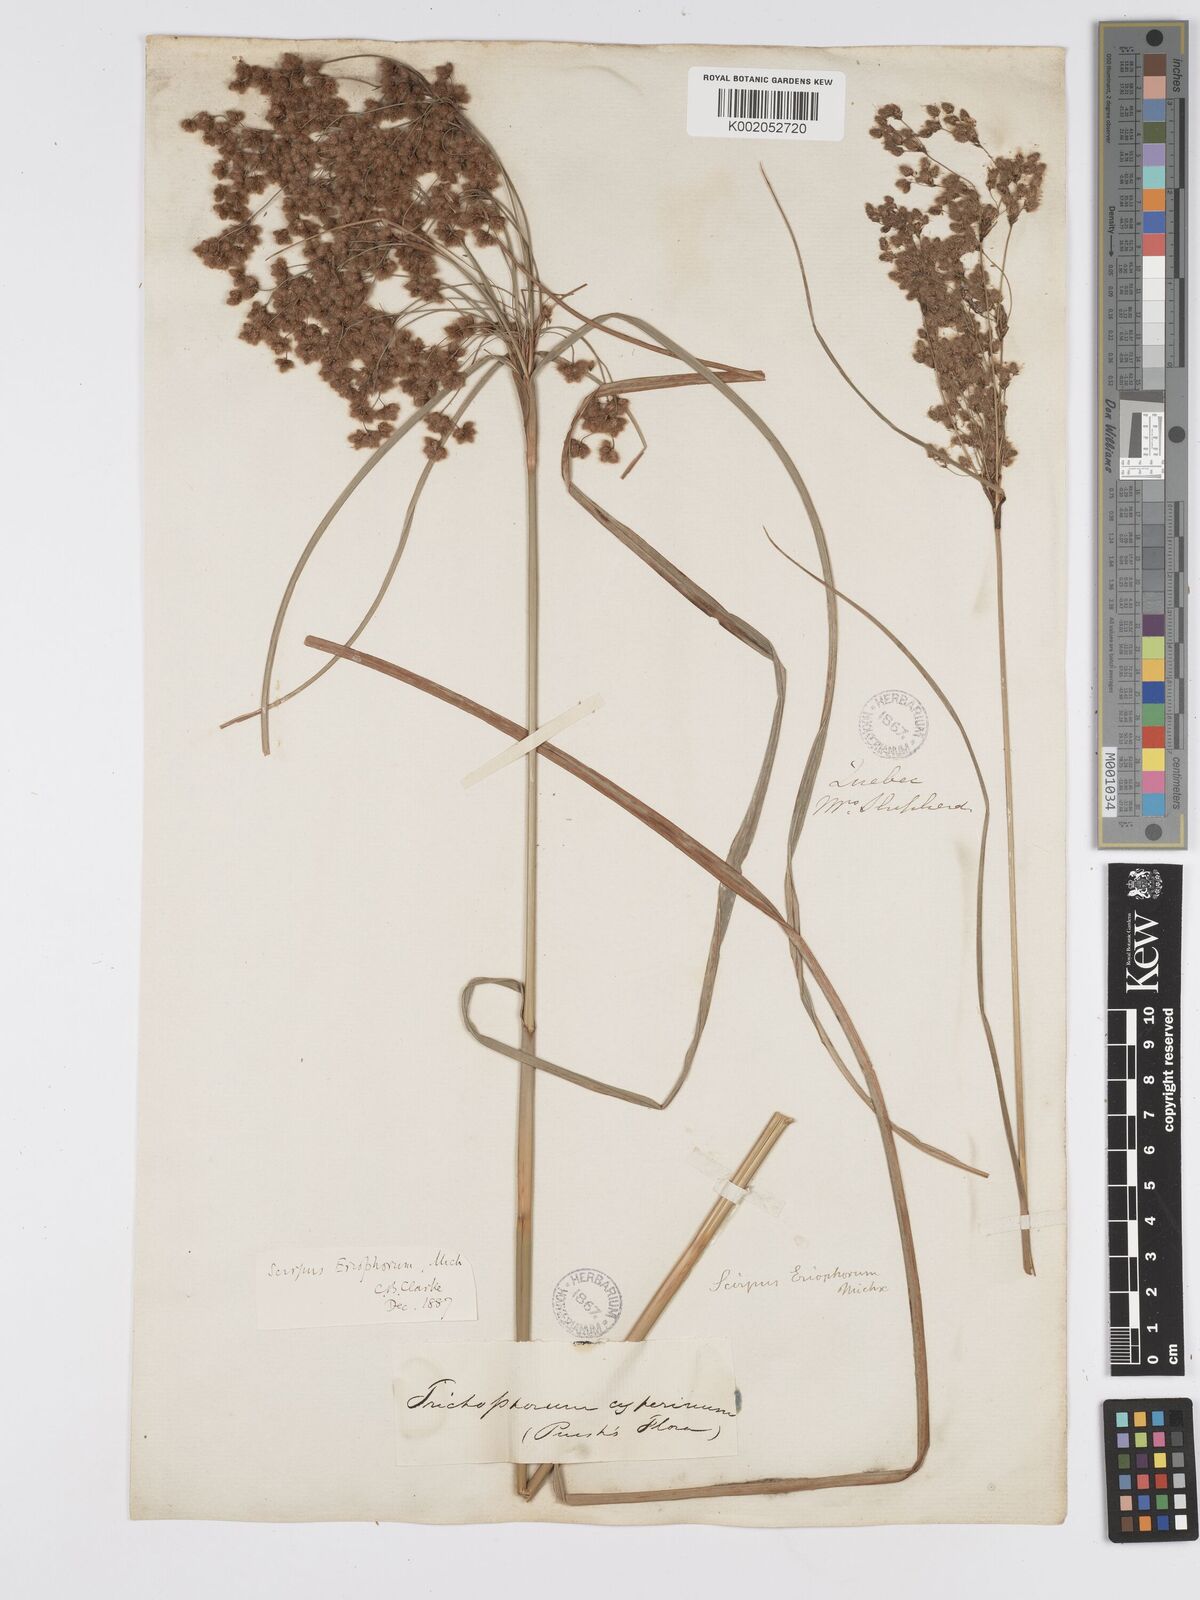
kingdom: Plantae
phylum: Tracheophyta
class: Liliopsida
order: Poales
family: Cyperaceae
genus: Scirpus
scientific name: Scirpus cyperinus
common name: Black-sheathed bulrush
